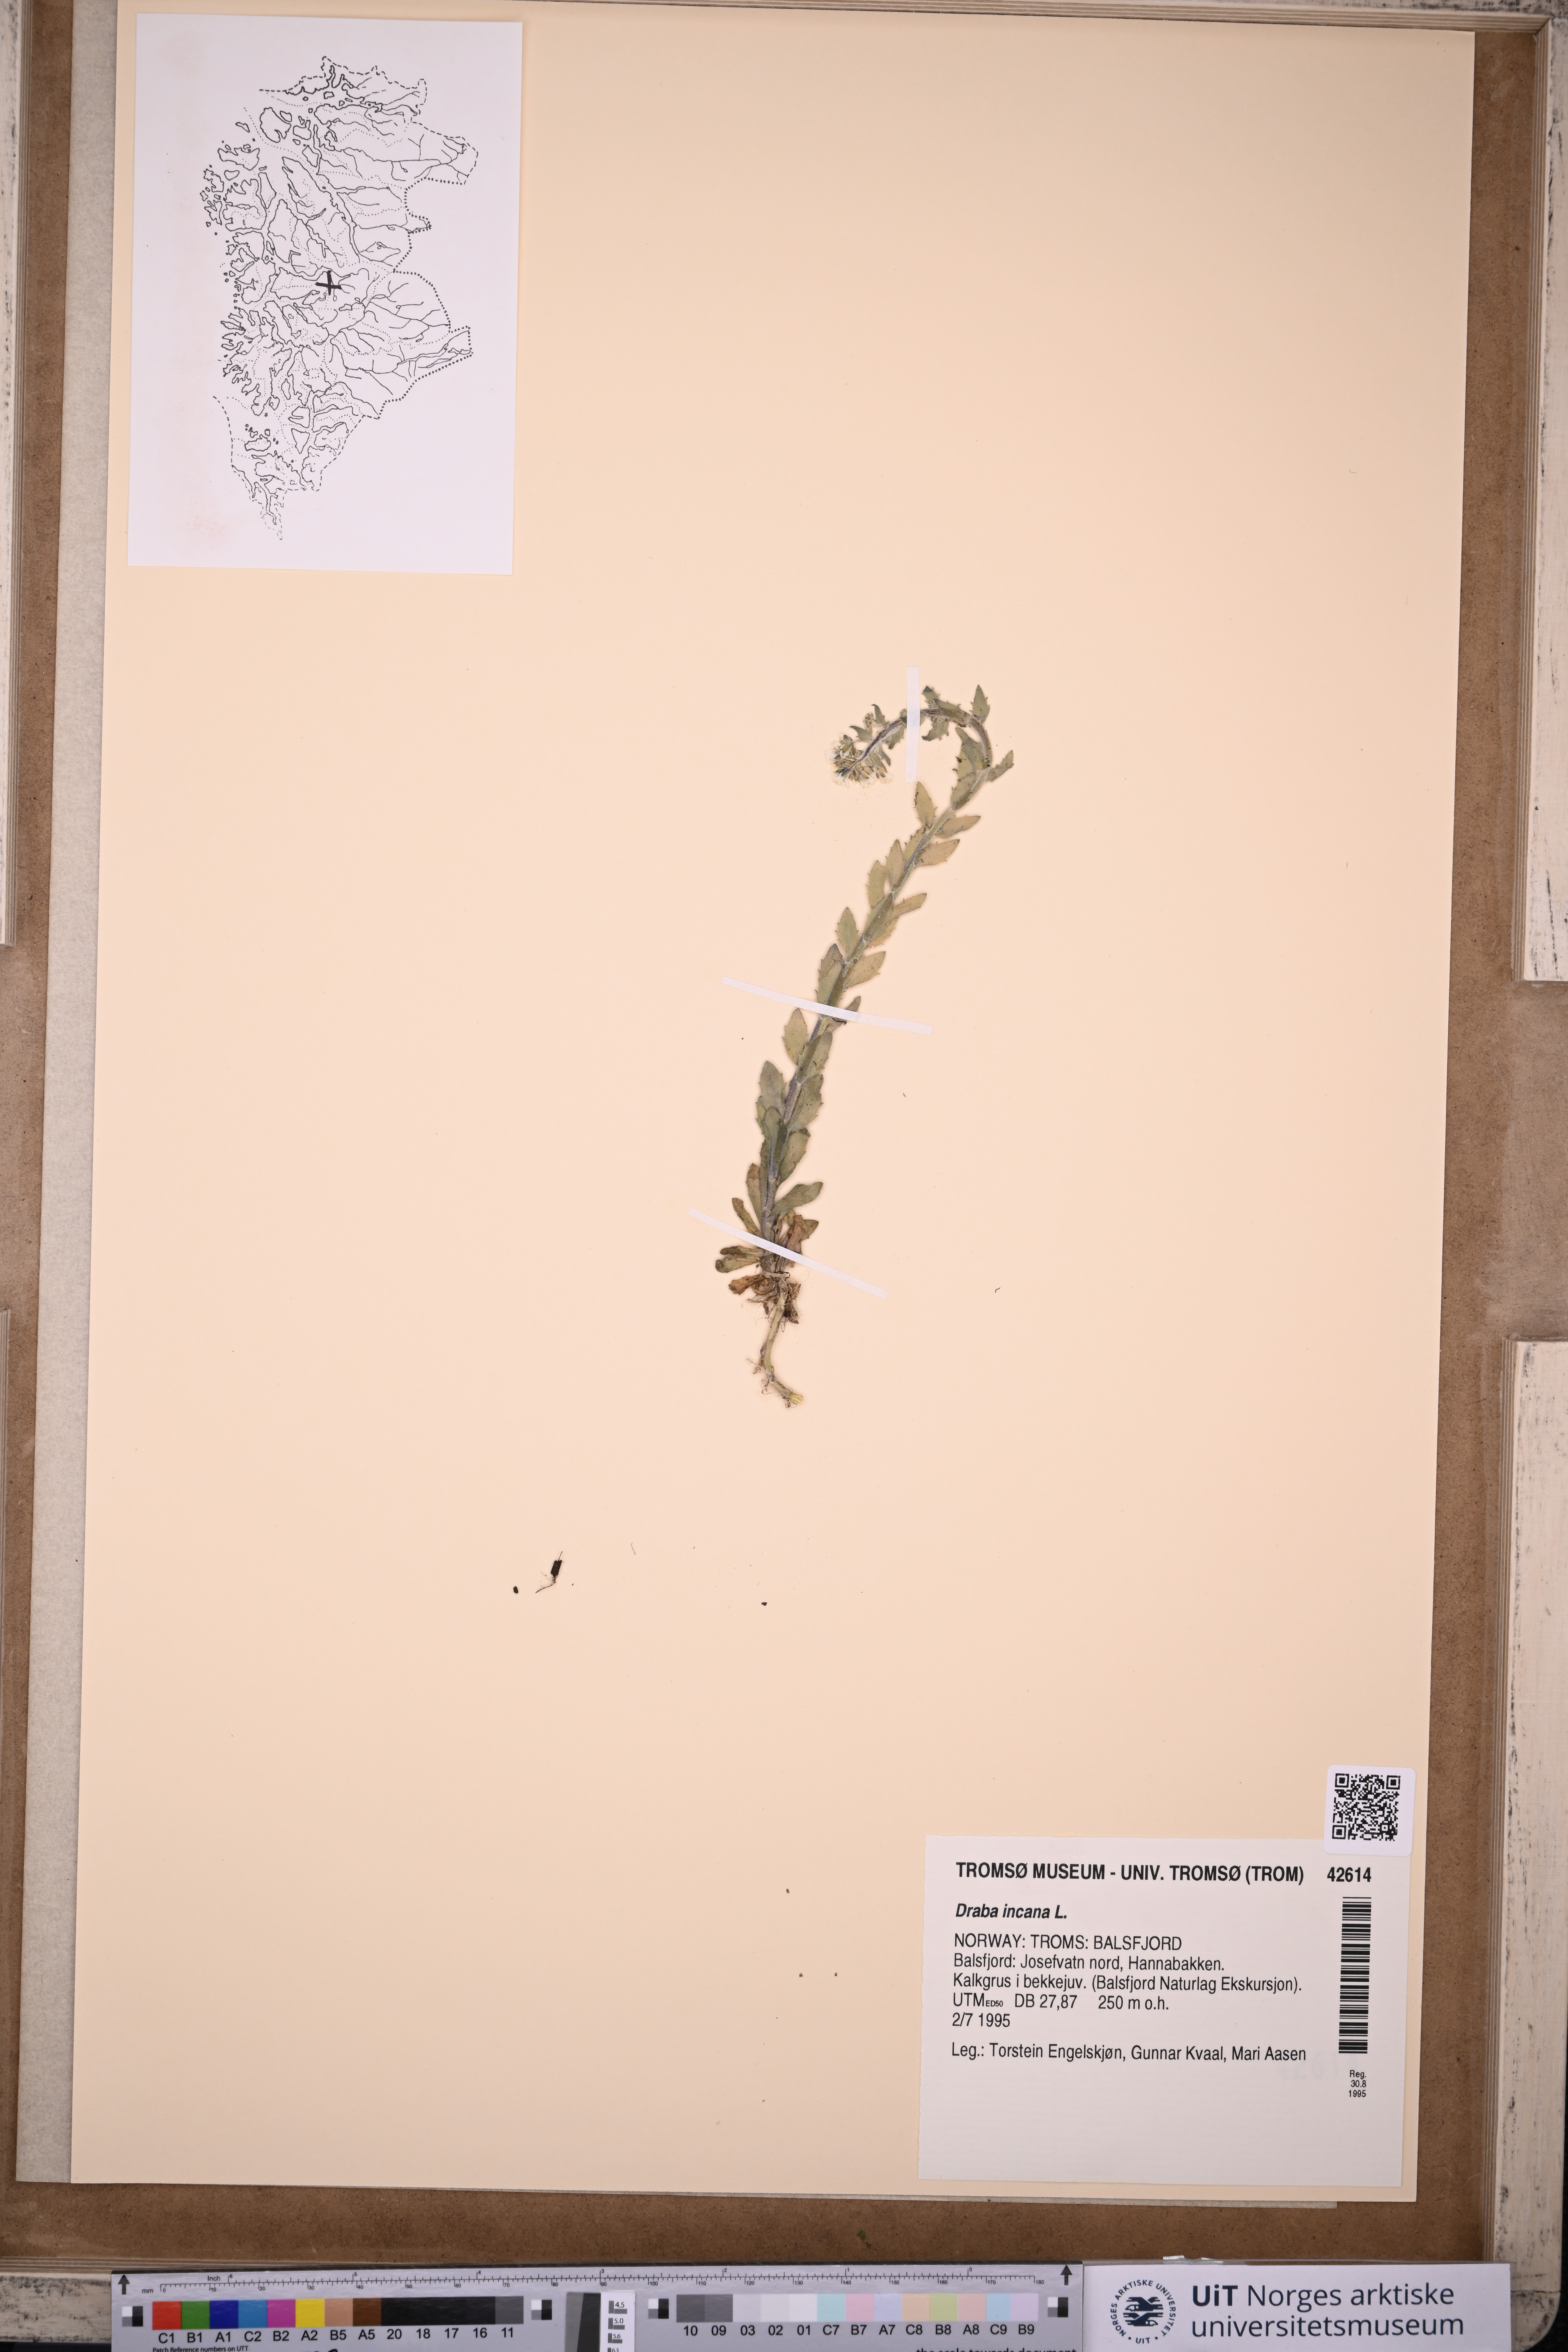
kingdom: Plantae
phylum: Tracheophyta
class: Magnoliopsida
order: Brassicales
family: Brassicaceae
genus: Draba
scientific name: Draba incana
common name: Hoary whitlow-grass
